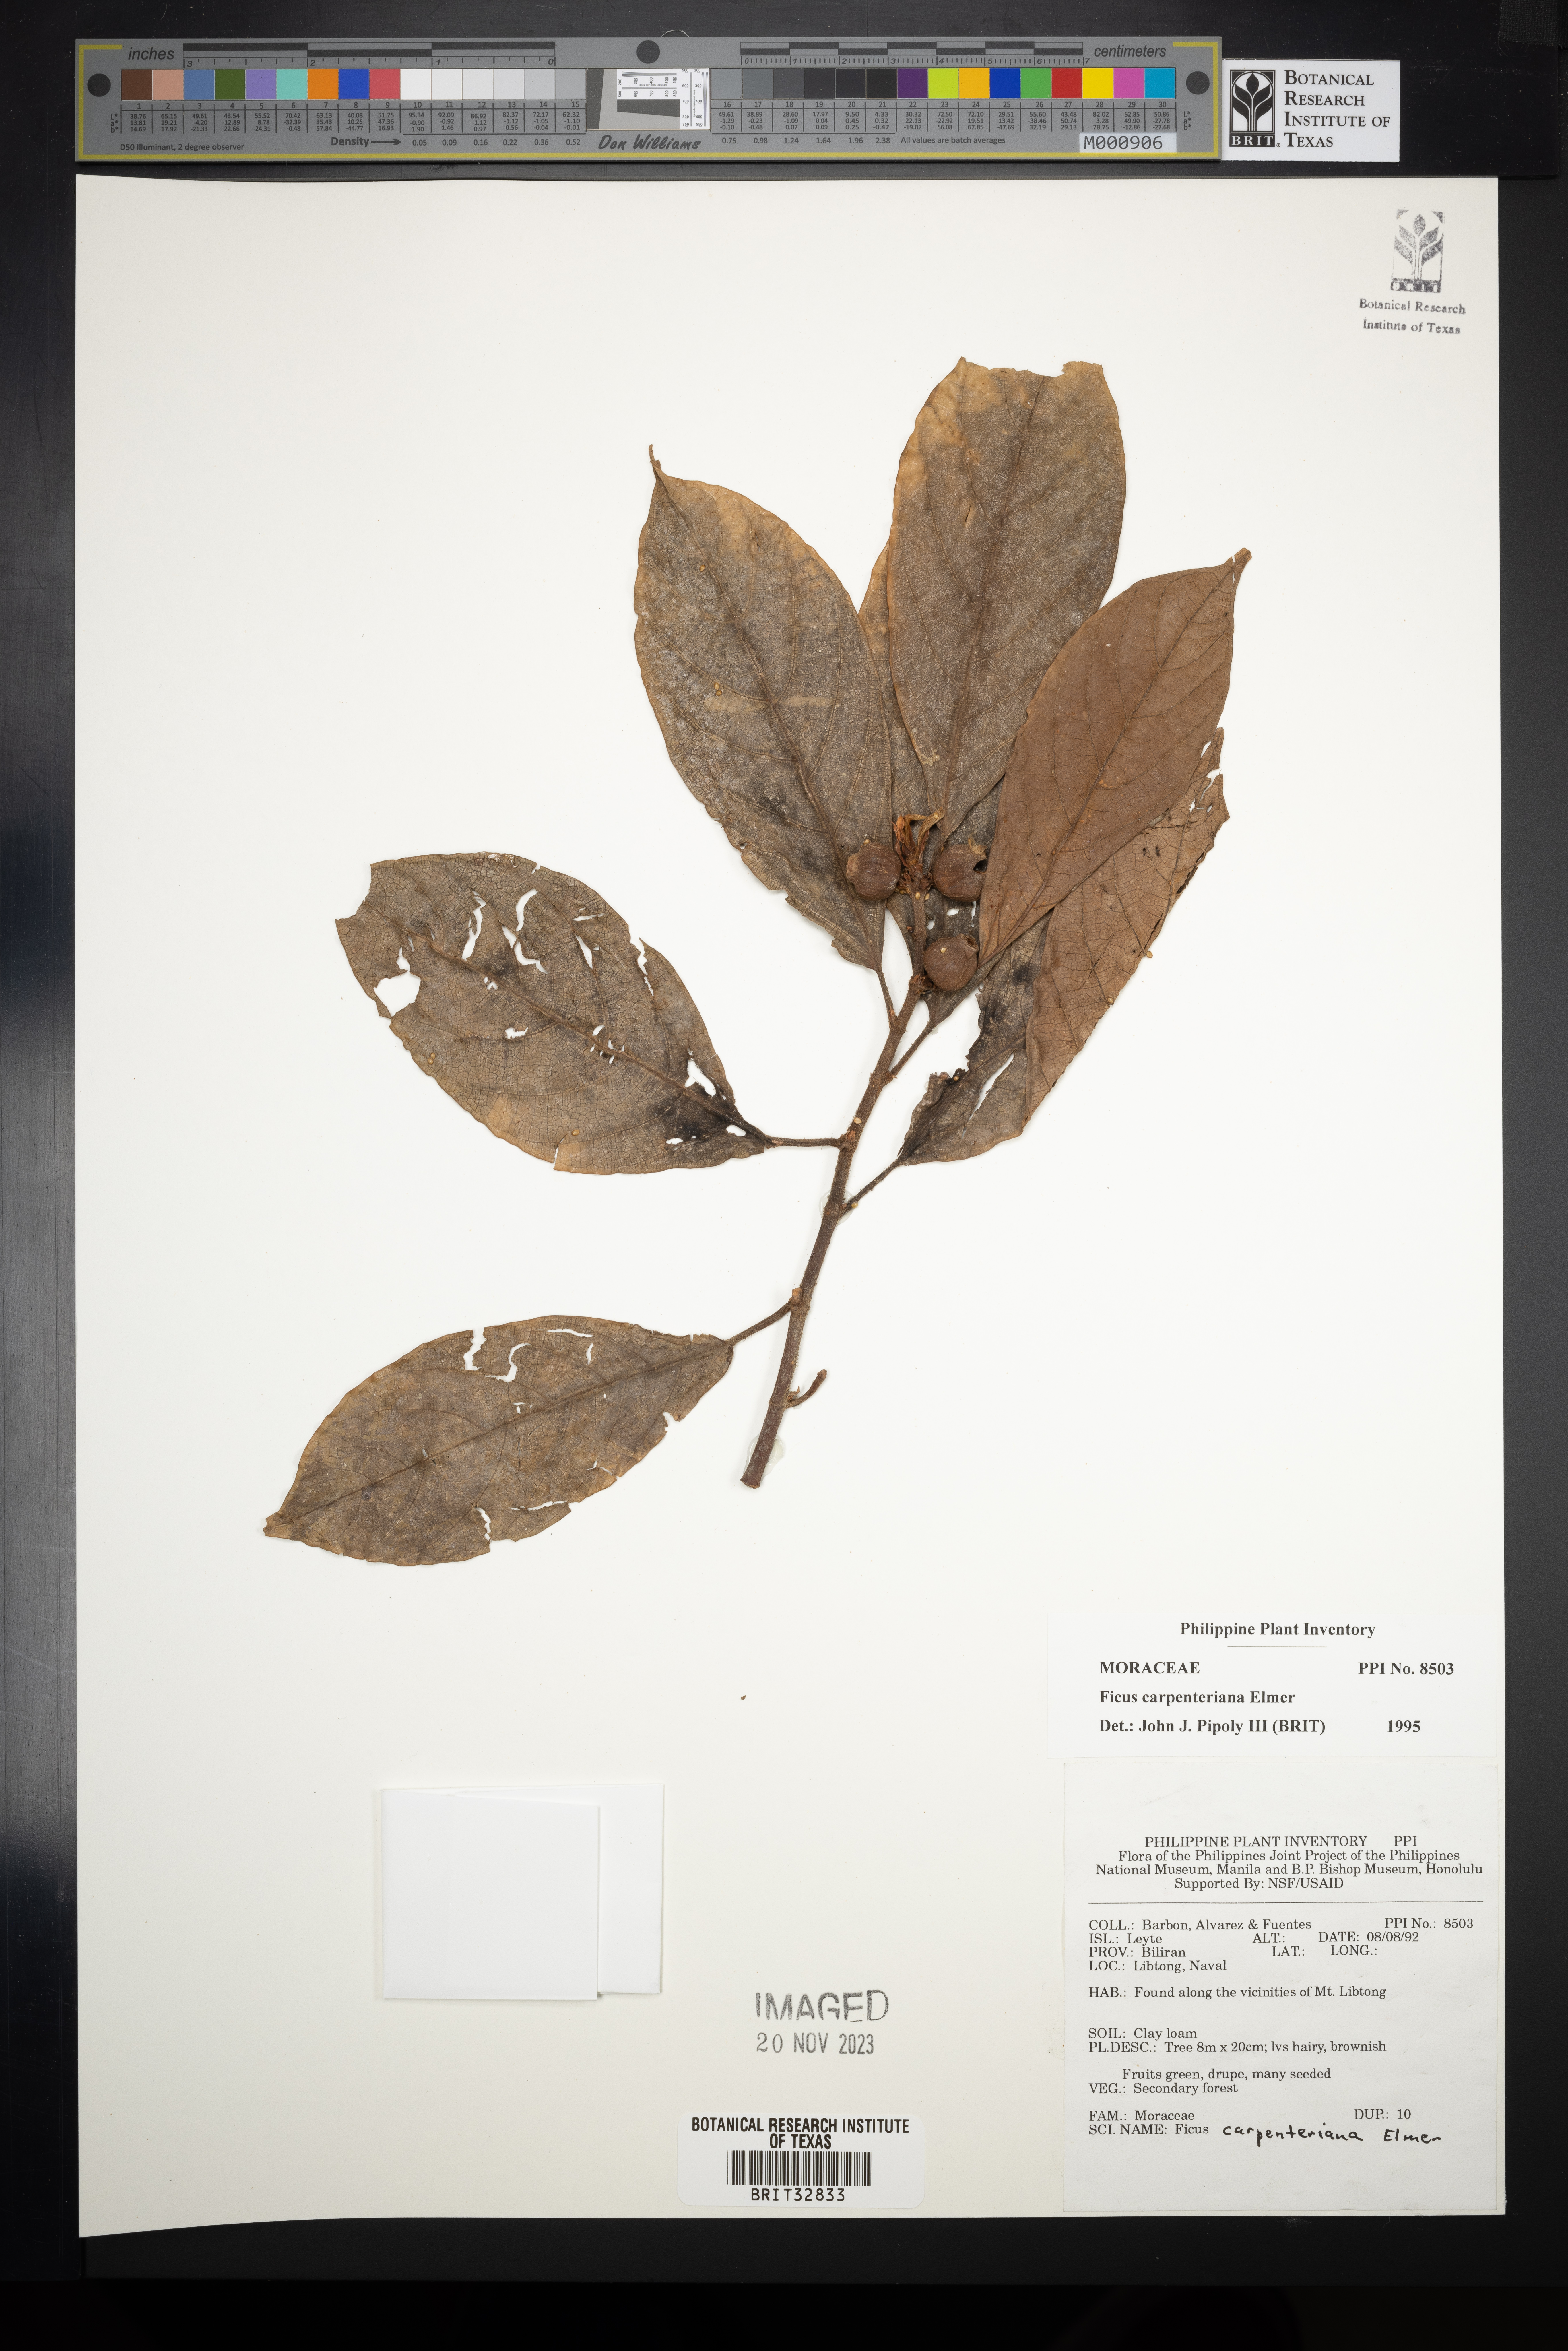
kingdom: Plantae
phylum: Tracheophyta
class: Magnoliopsida
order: Rosales
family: Moraceae
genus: Ficus
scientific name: Ficus carpenteriana
